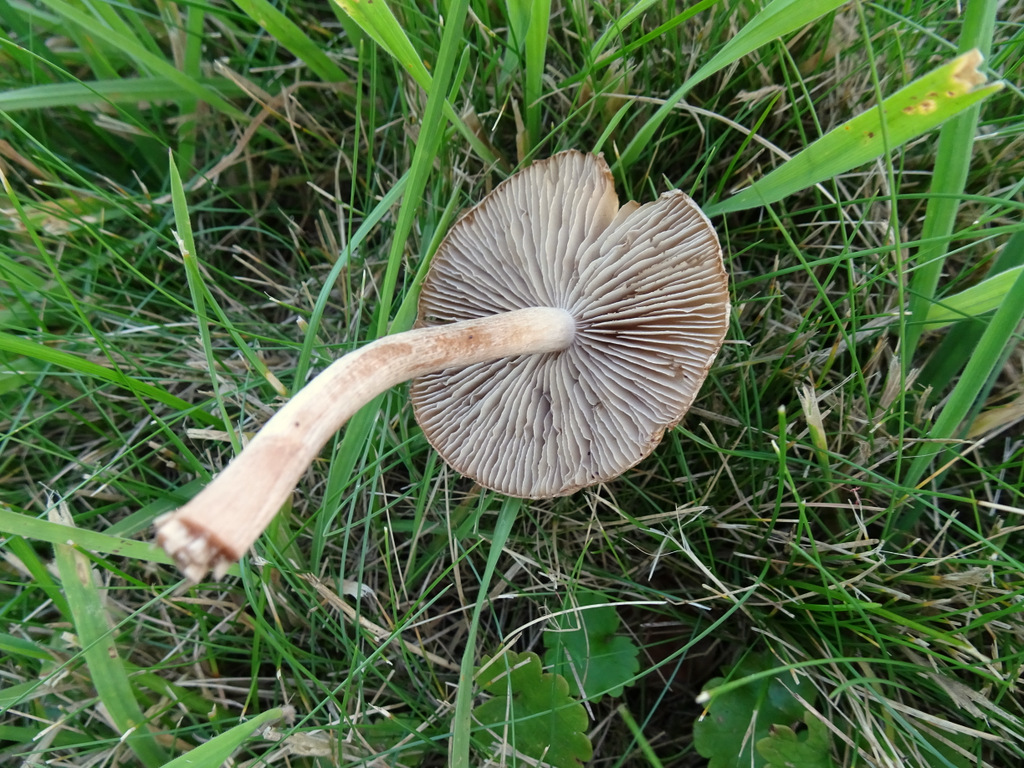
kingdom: Fungi
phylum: Basidiomycota
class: Agaricomycetes
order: Agaricales
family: Inocybaceae
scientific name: Inocybaceae
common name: trævlhatfamilien
